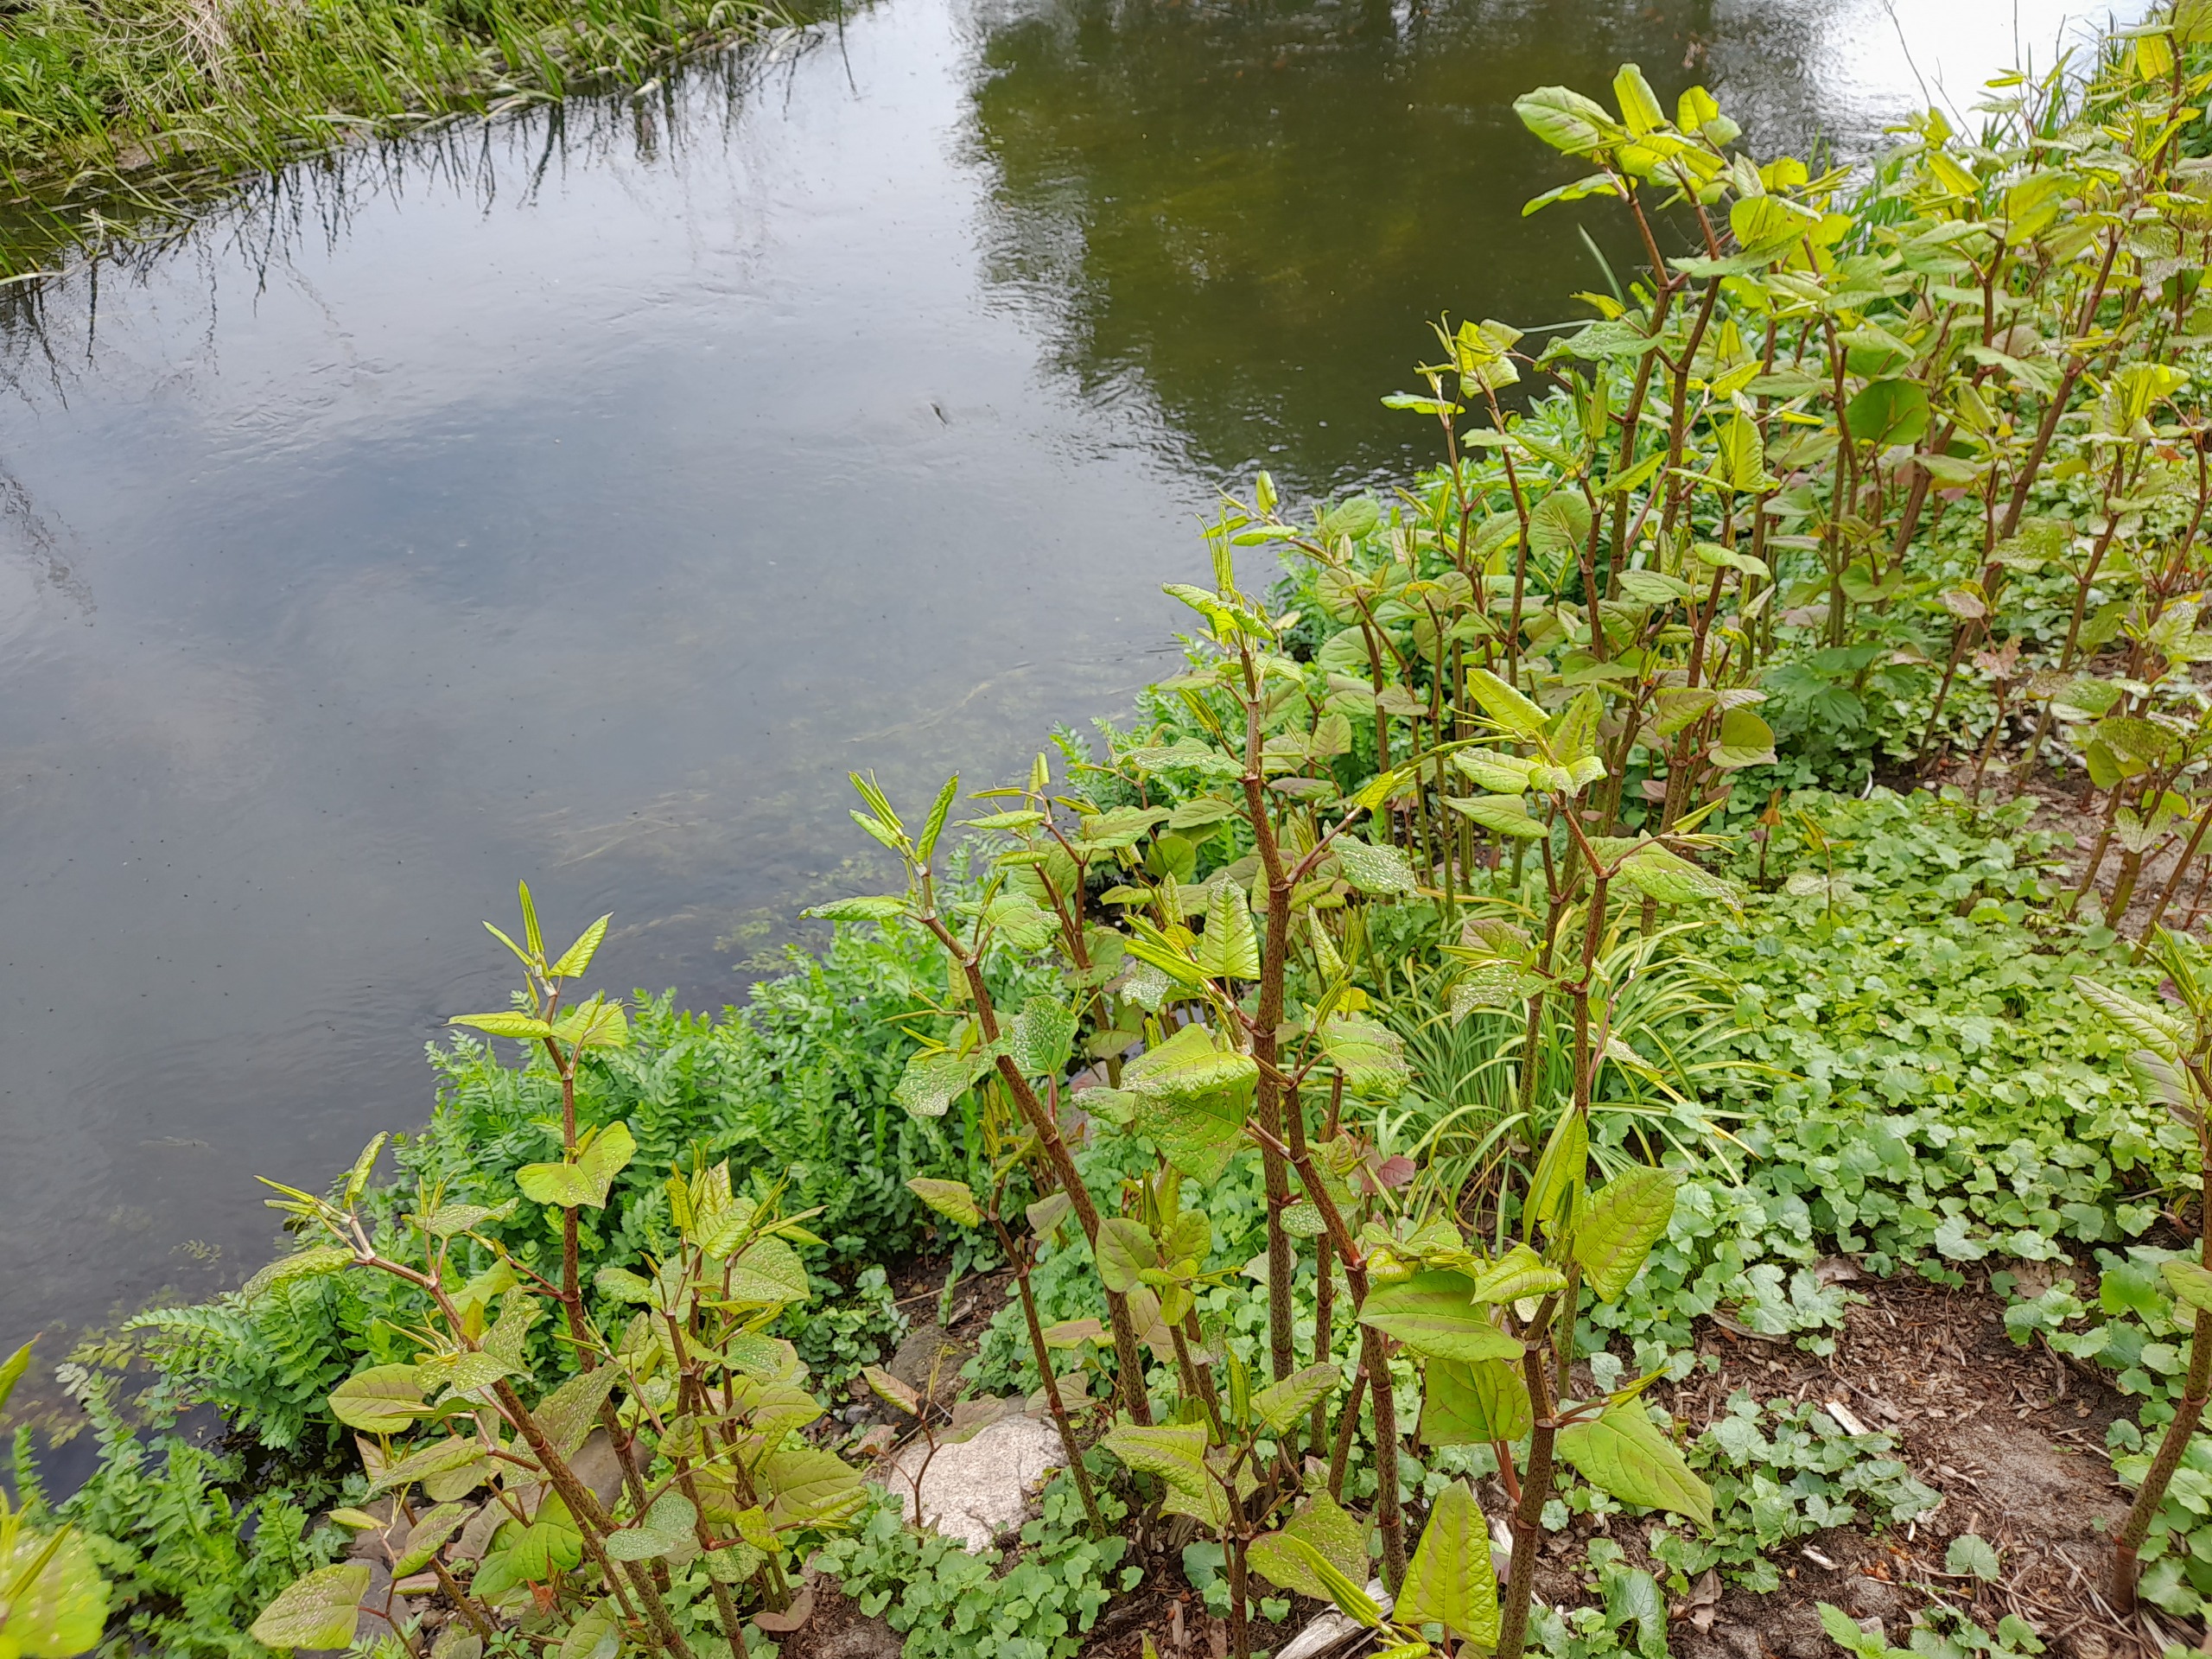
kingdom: Plantae
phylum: Tracheophyta
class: Magnoliopsida
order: Caryophyllales
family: Polygonaceae
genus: Reynoutria
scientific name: Reynoutria bohemica
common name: Hybrid-pileurt
